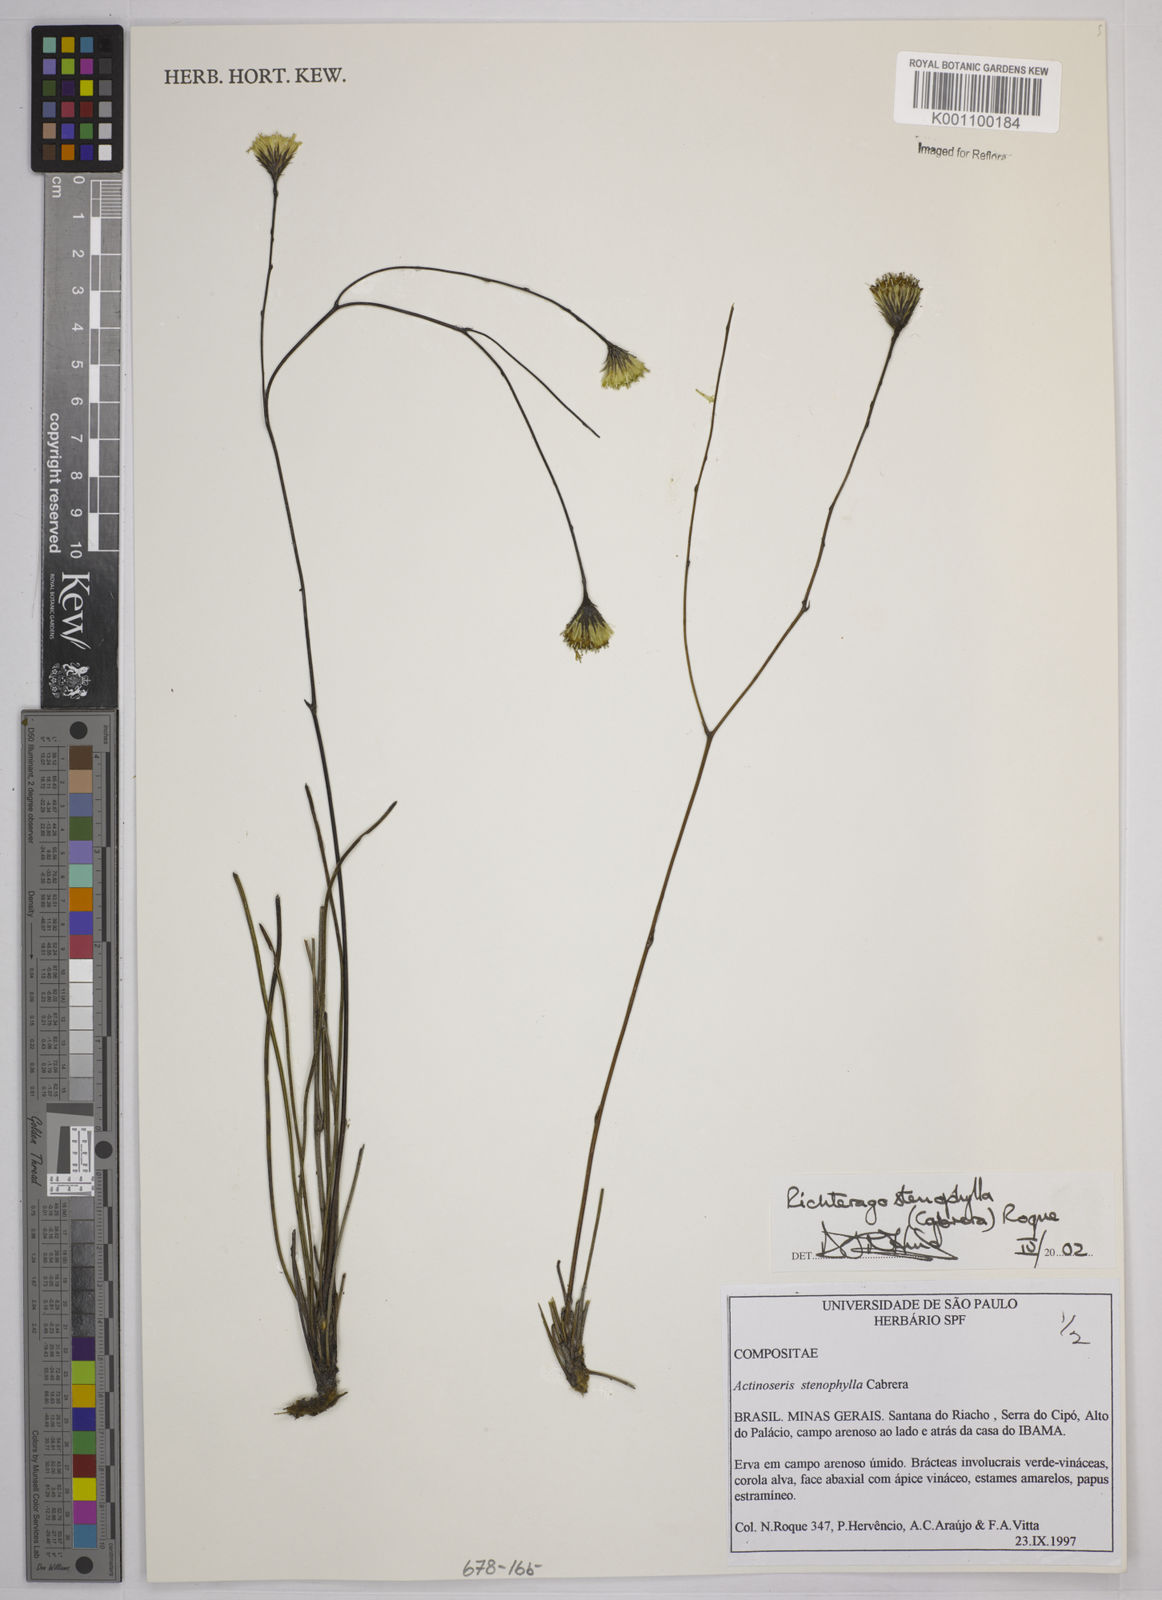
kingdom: Plantae
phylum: Tracheophyta
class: Magnoliopsida
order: Asterales
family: Asteraceae
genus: Richterago
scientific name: Richterago stenophylla
